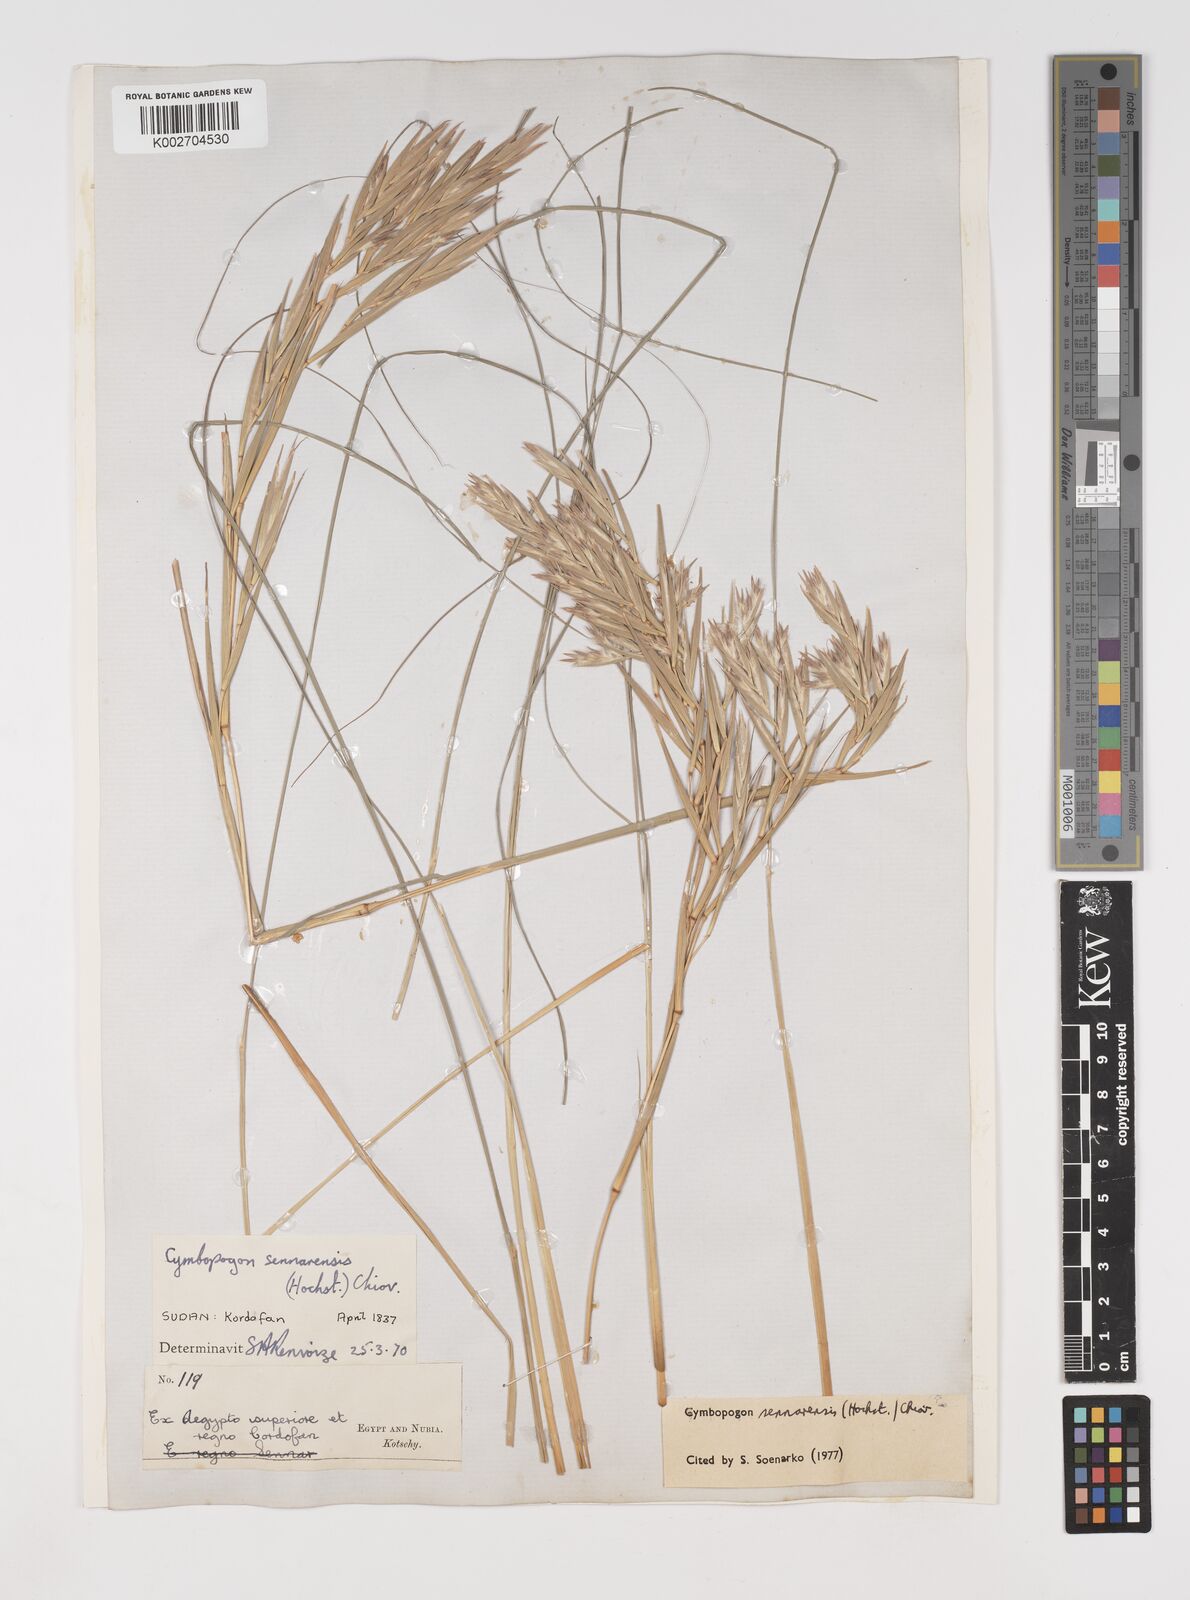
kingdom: Plantae
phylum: Tracheophyta
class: Liliopsida
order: Poales
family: Poaceae
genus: Cymbopogon
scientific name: Cymbopogon schoenanthus
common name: Geranium grass
